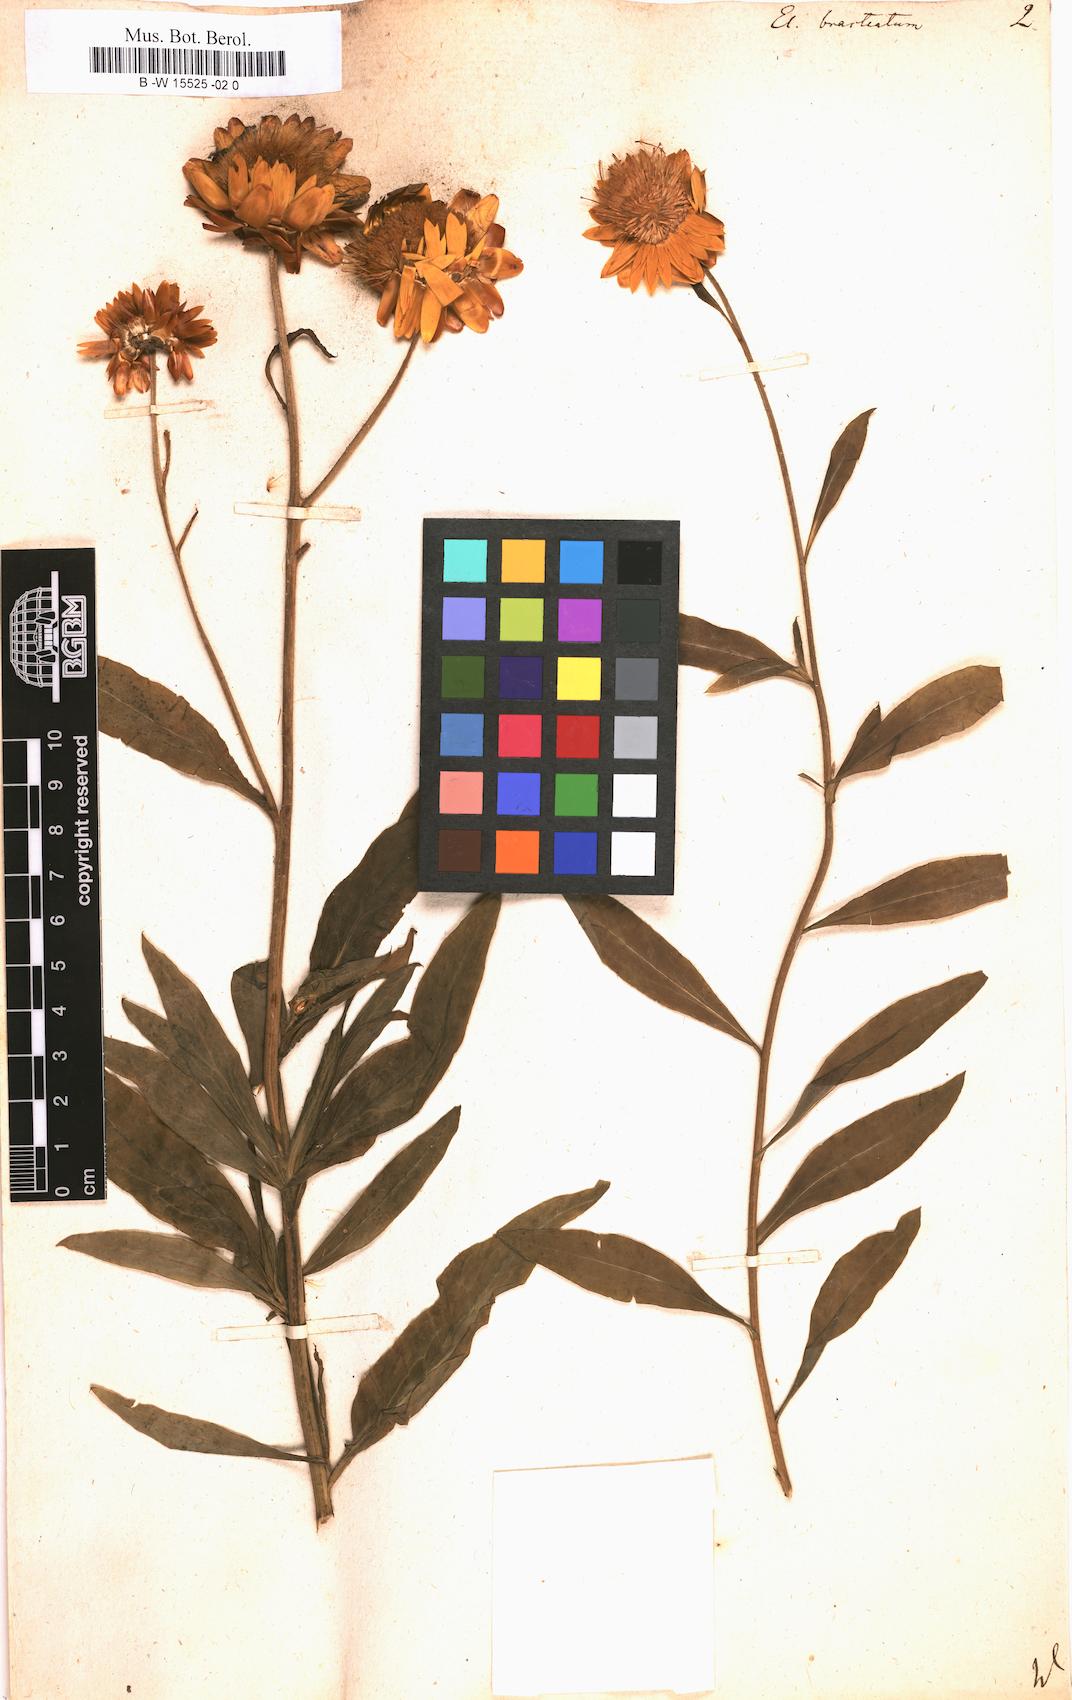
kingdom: Plantae
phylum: Tracheophyta
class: Magnoliopsida
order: Asterales
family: Asteraceae
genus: Xerochrysum
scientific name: Xerochrysum bracteatum
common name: Bracted strawflower
